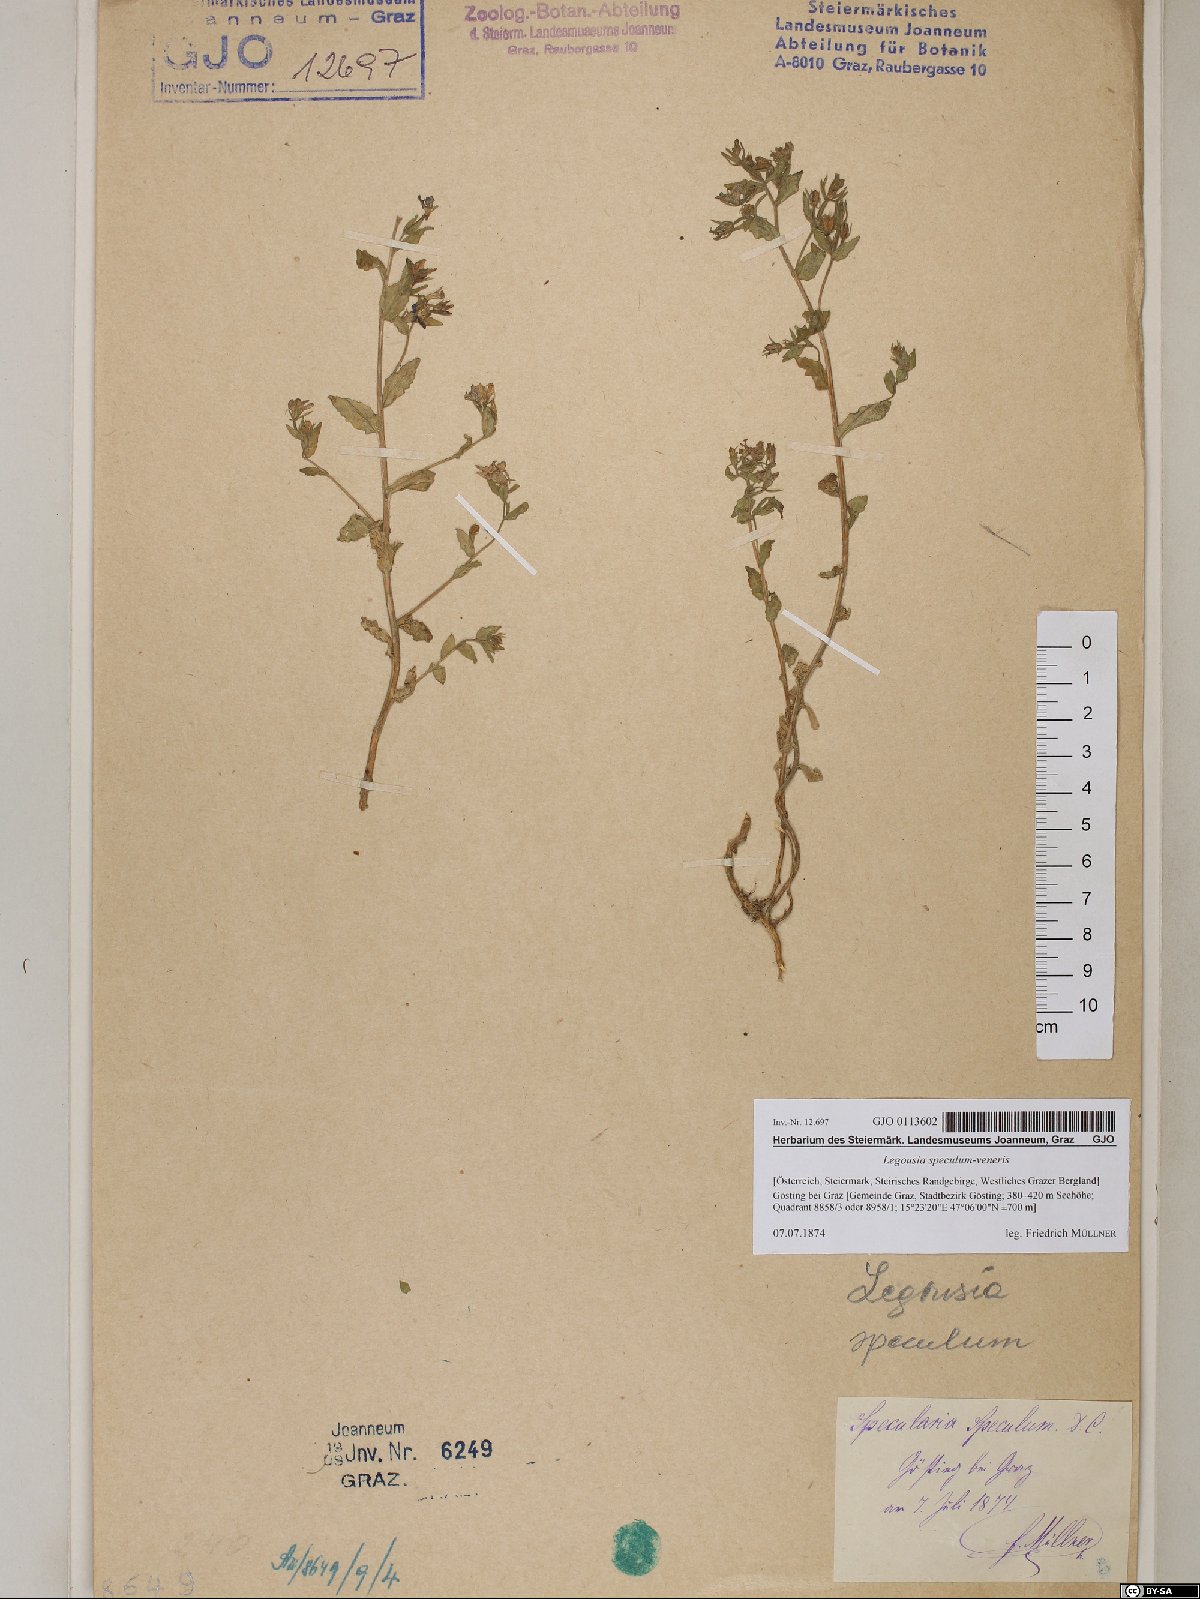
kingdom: Plantae
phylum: Tracheophyta
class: Magnoliopsida
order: Asterales
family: Campanulaceae
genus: Legousia
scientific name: Legousia speculum-veneris
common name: Large venus's-looking-glass
